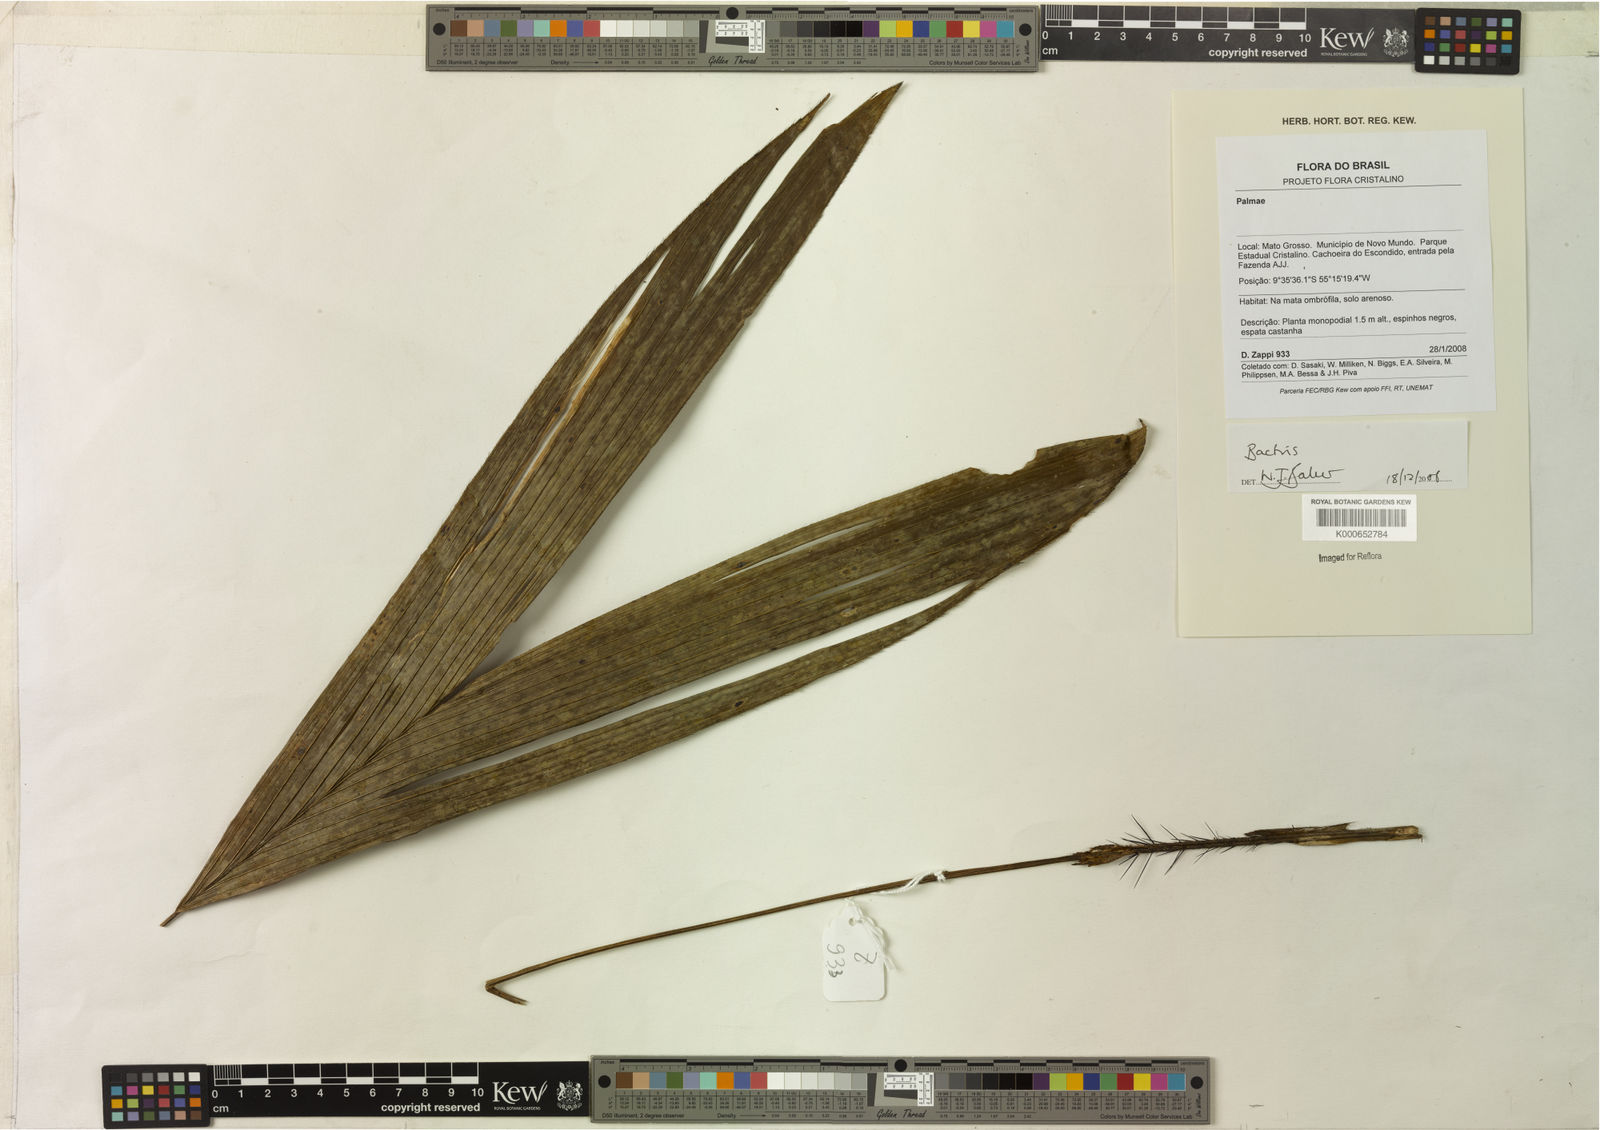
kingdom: Plantae
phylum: Tracheophyta
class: Liliopsida
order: Arecales
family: Arecaceae
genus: Bactris
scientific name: Bactris
